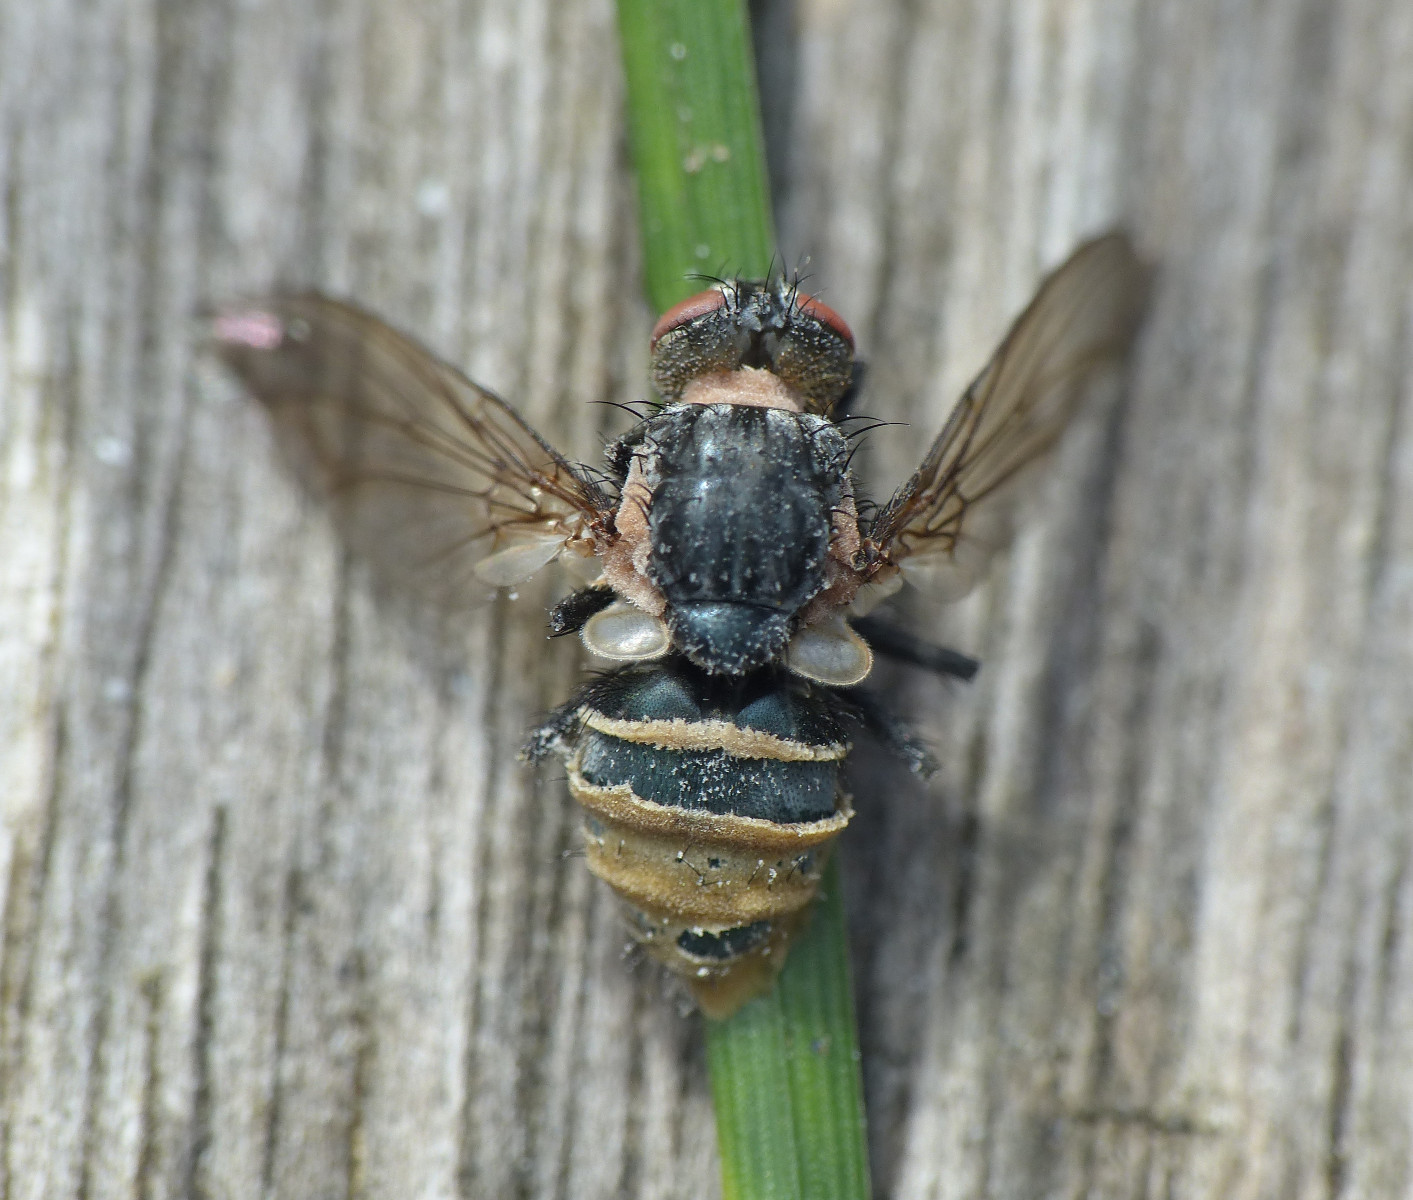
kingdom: Fungi
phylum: Entomophthoromycota
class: Entomophthoromycetes
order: Entomophthorales
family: Entomophthoraceae
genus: Entomophthora
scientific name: Entomophthora muscae
